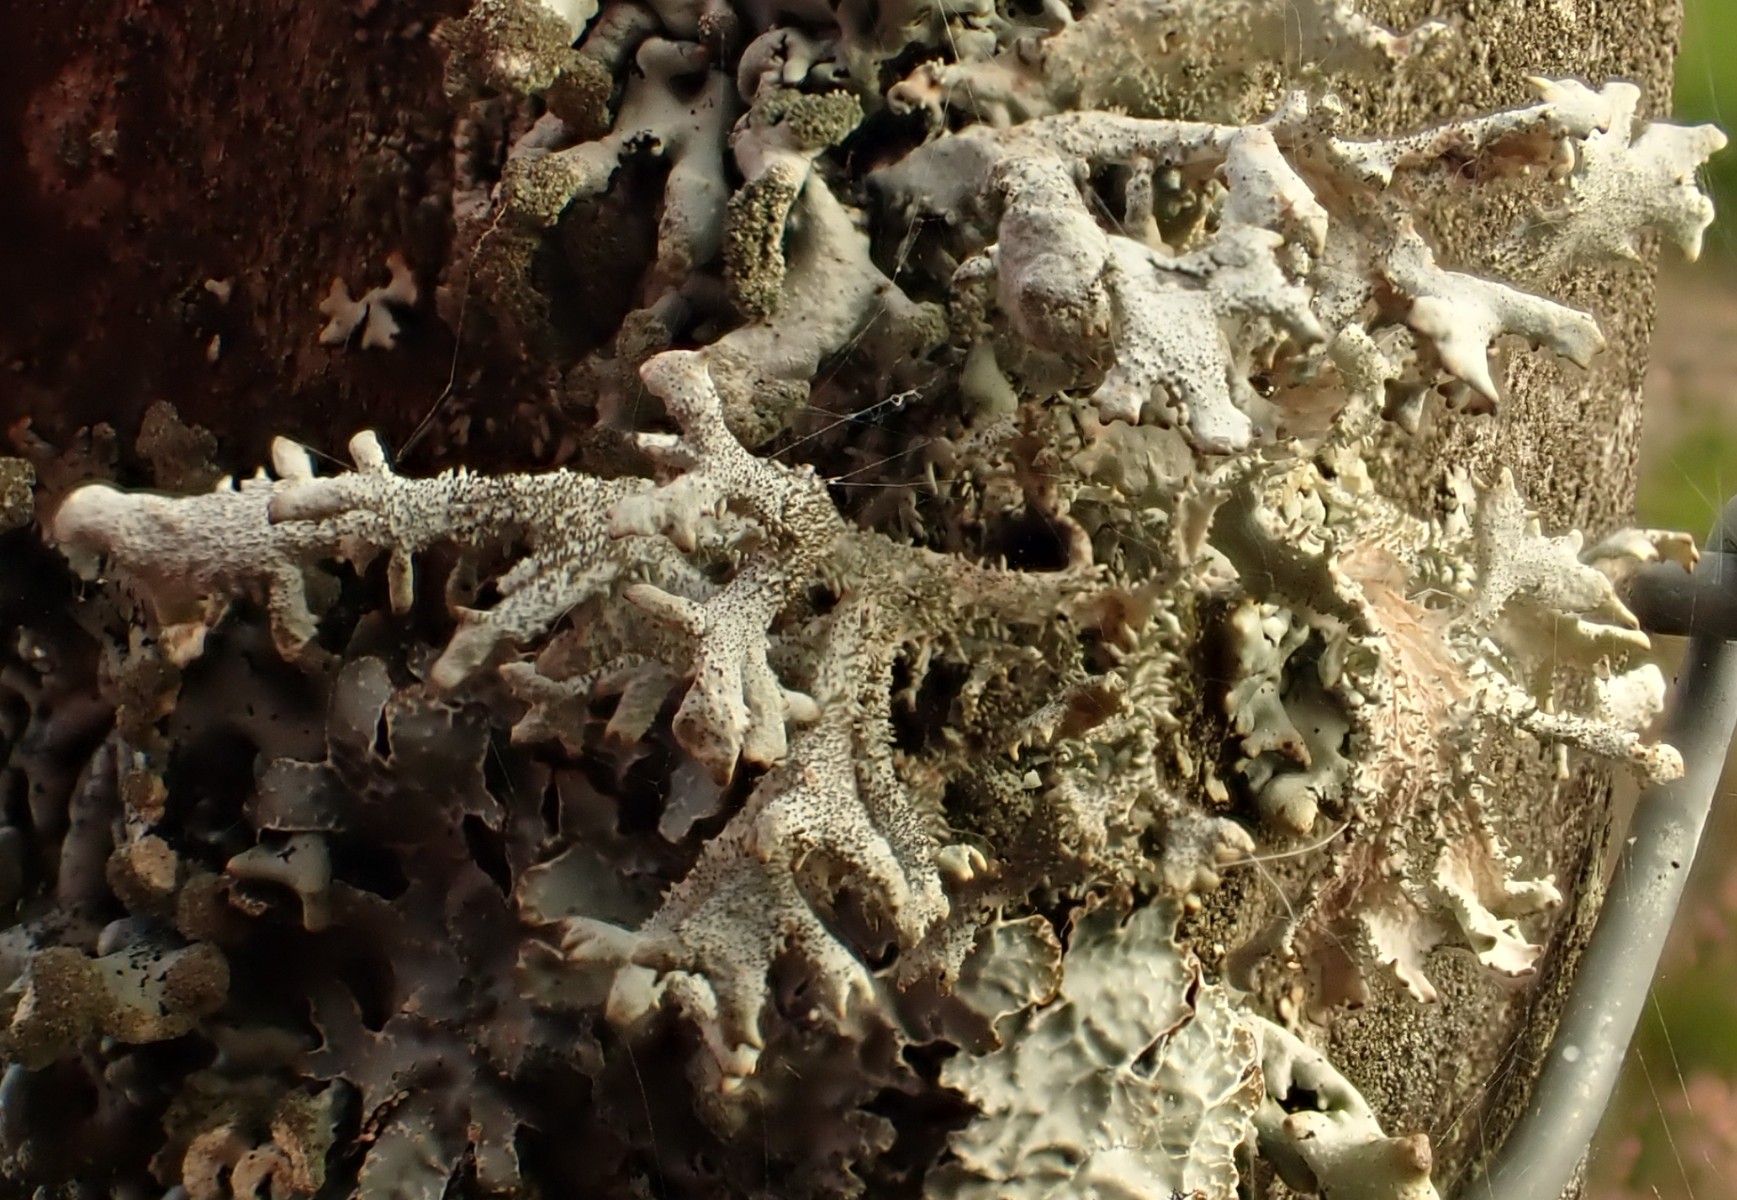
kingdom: Fungi
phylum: Ascomycota
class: Lecanoromycetes
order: Lecanorales
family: Parmeliaceae
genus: Pseudevernia
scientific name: Pseudevernia furfuracea
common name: grå fyrrelav
